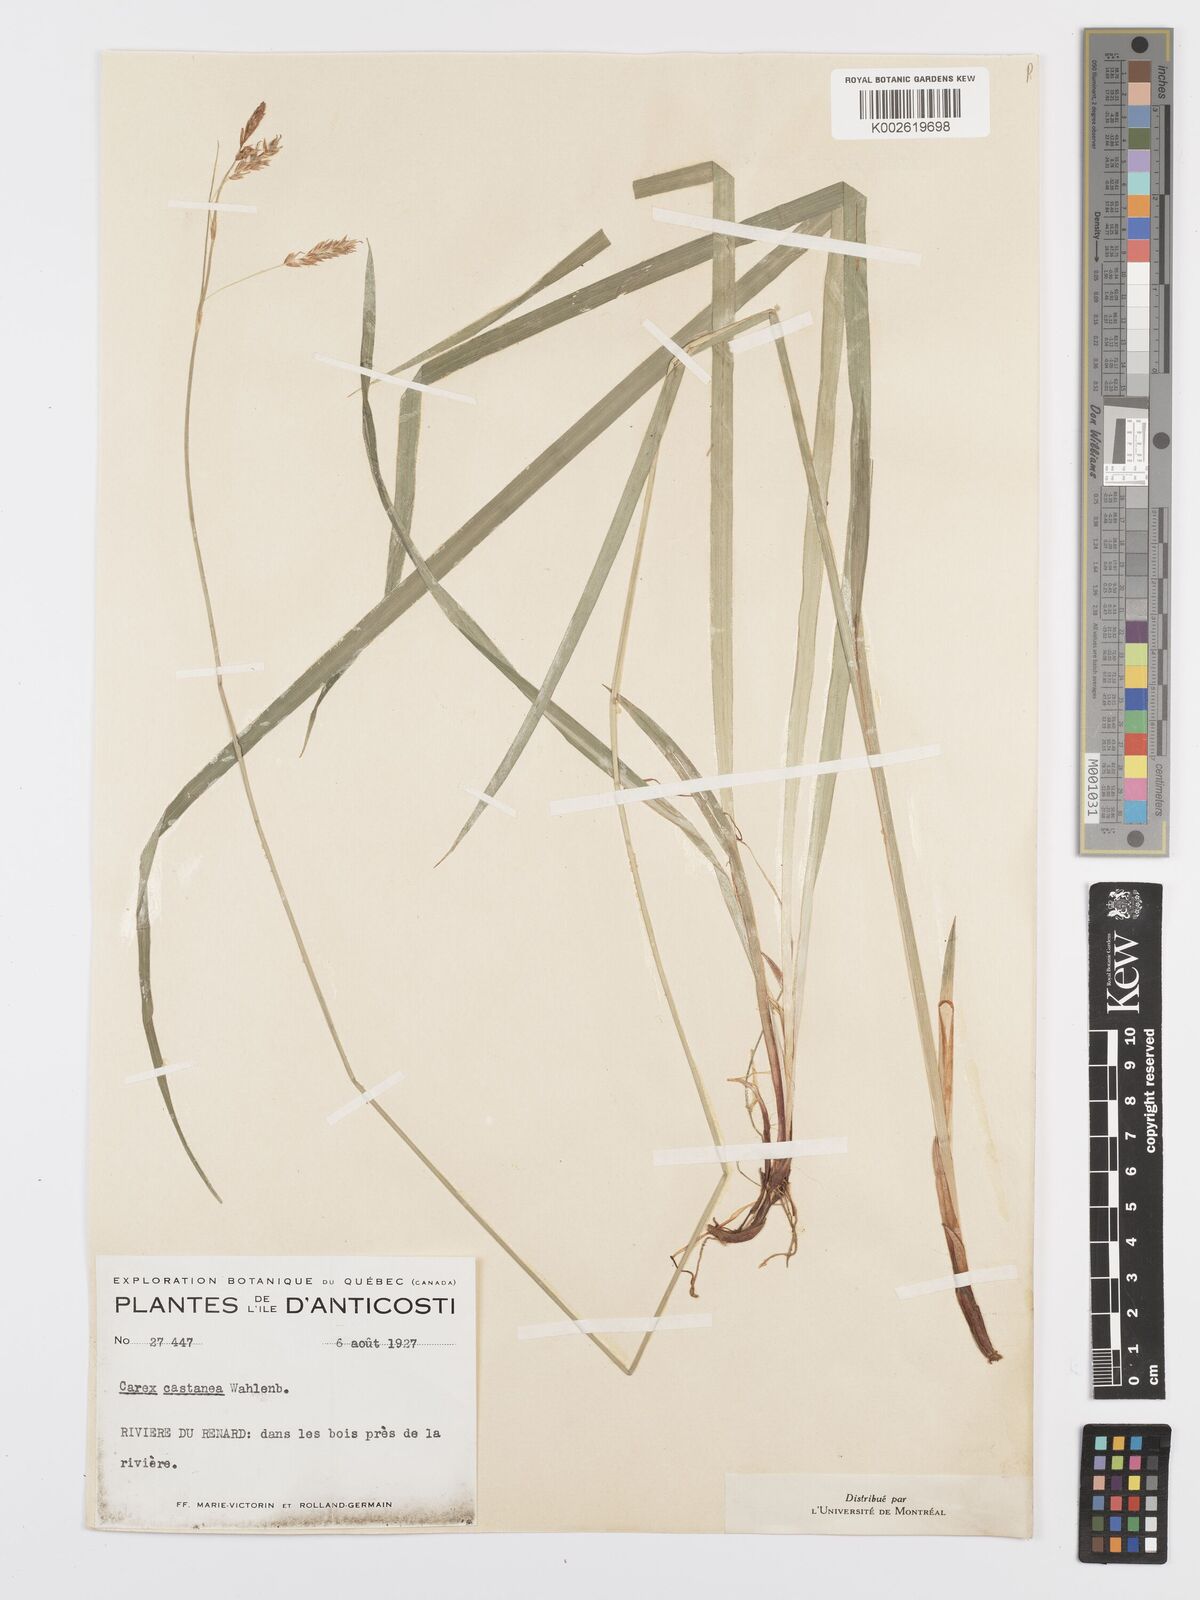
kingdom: Plantae
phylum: Tracheophyta
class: Liliopsida
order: Poales
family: Cyperaceae
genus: Carex
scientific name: Carex castanea
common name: Chestnut sedge
